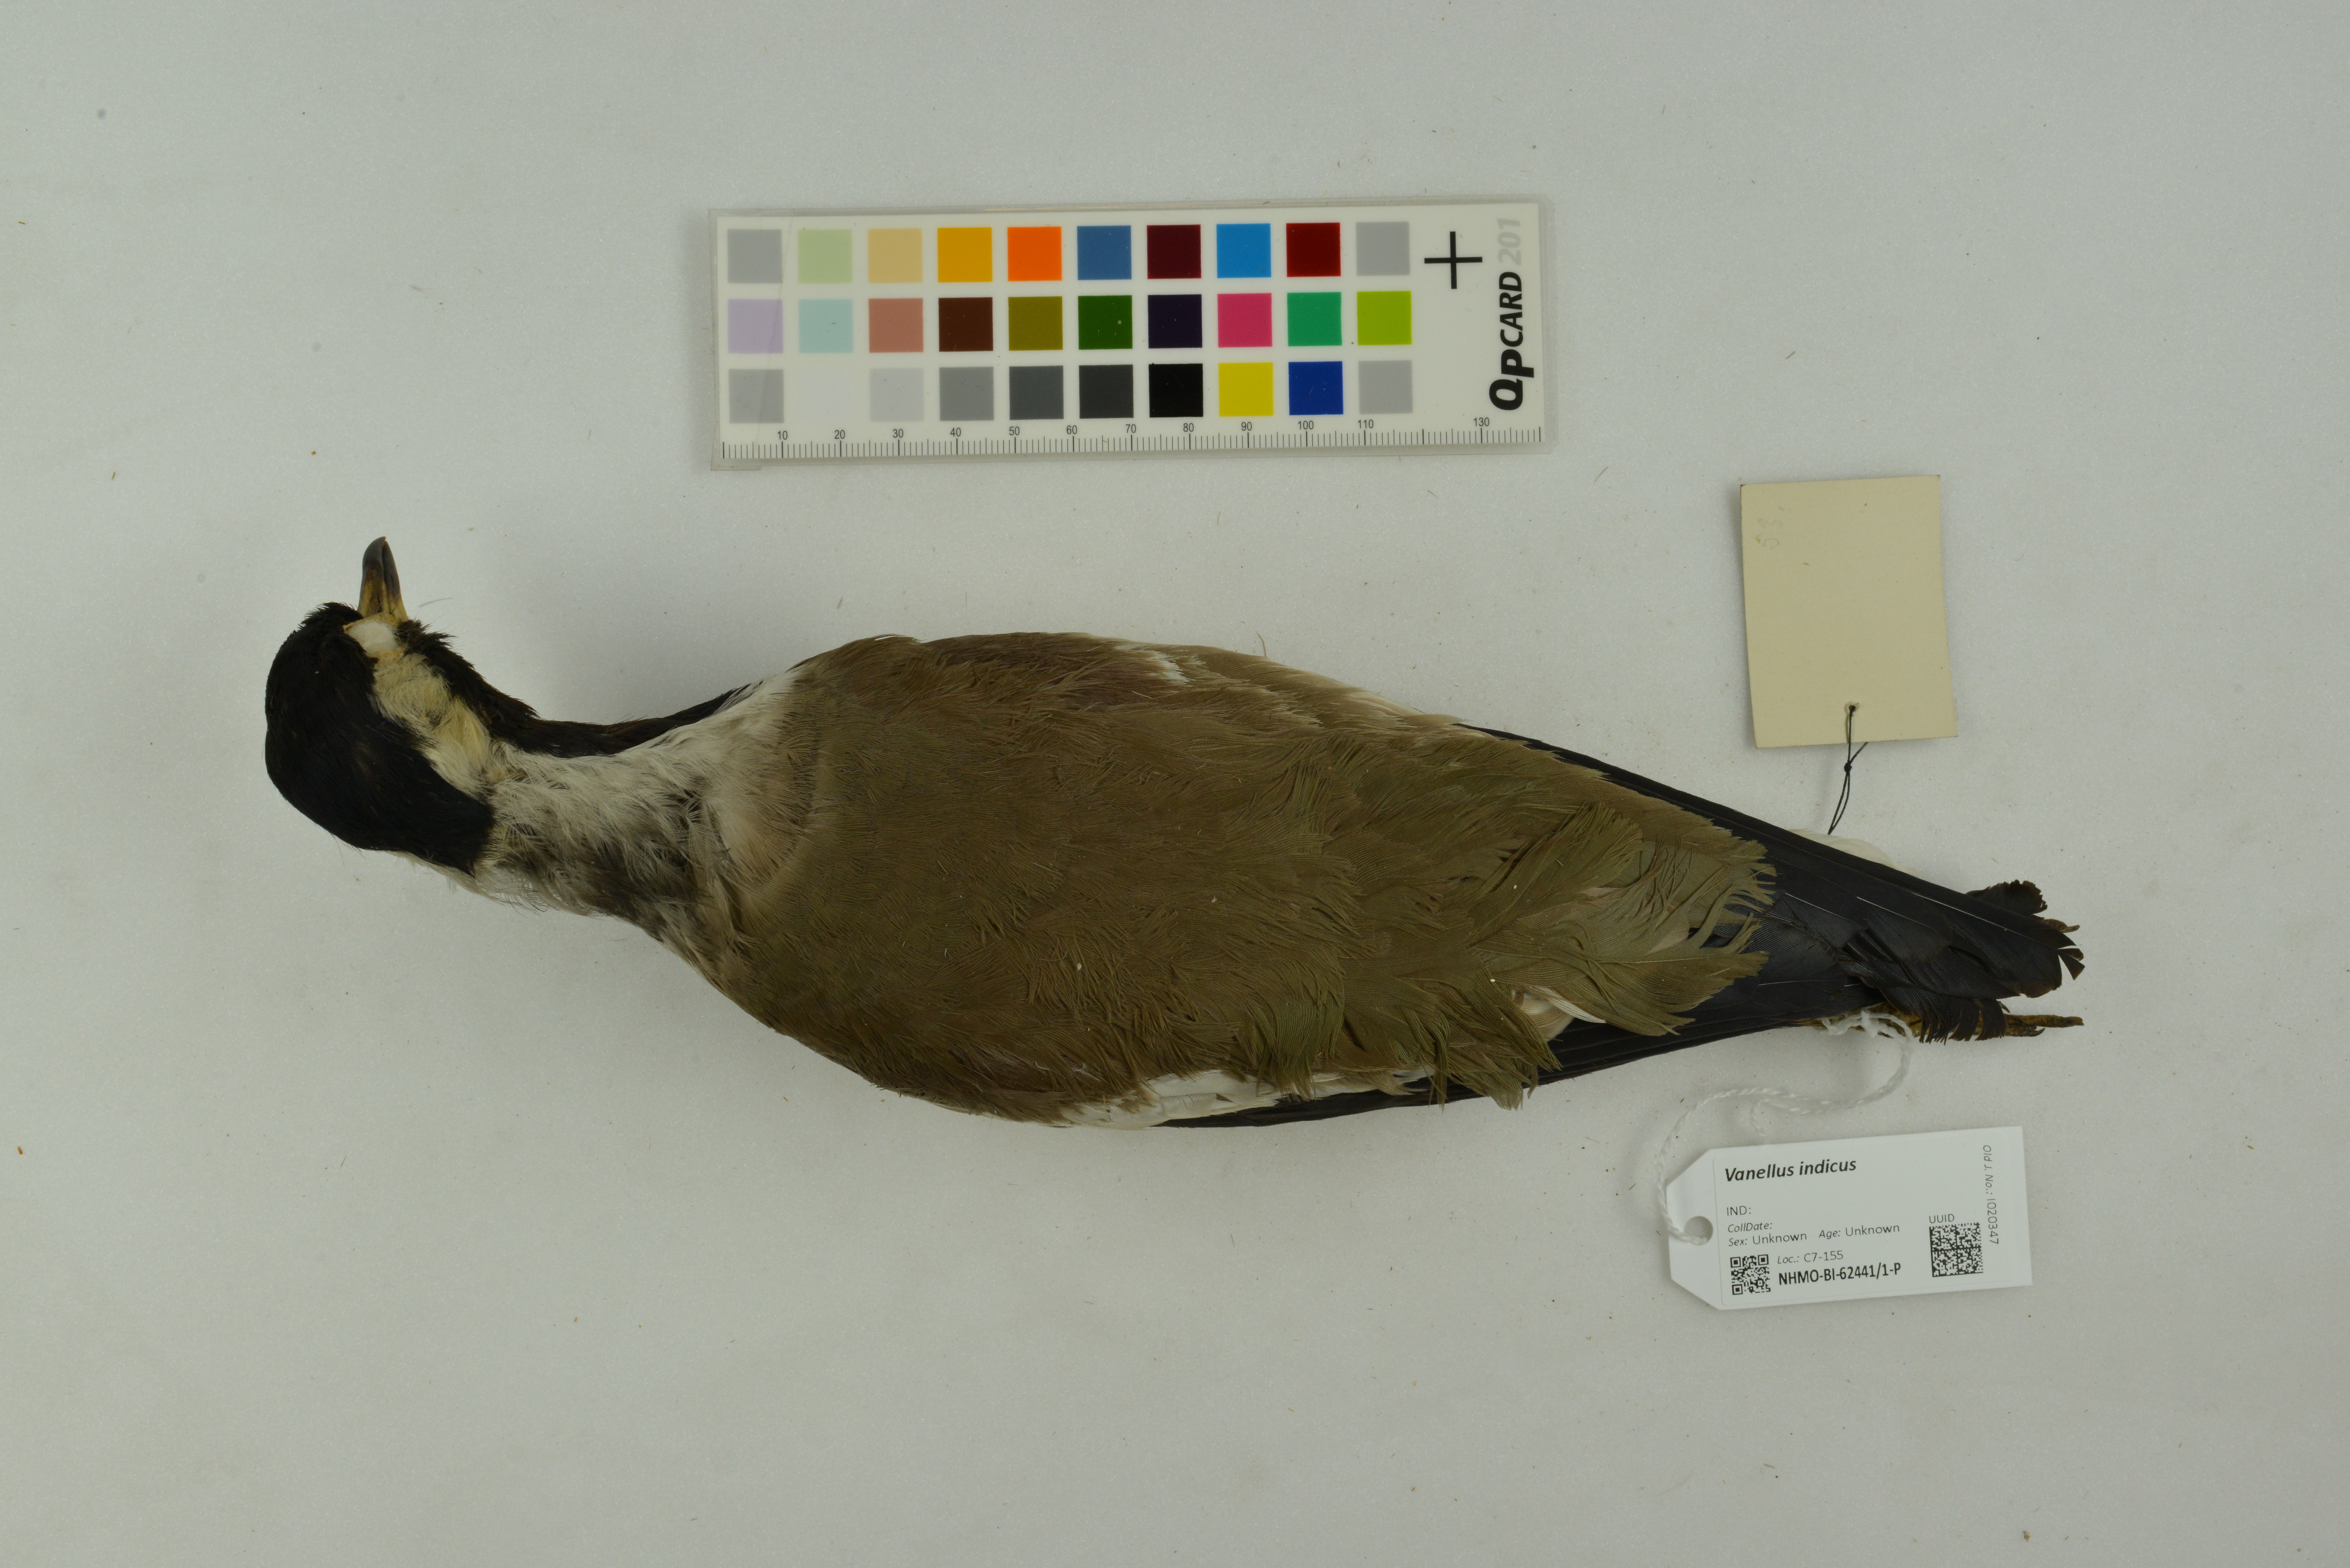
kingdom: Animalia
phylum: Chordata
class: Aves
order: Charadriiformes
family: Charadriidae
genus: Vanellus
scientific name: Vanellus indicus
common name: Red-wattled lapwing
